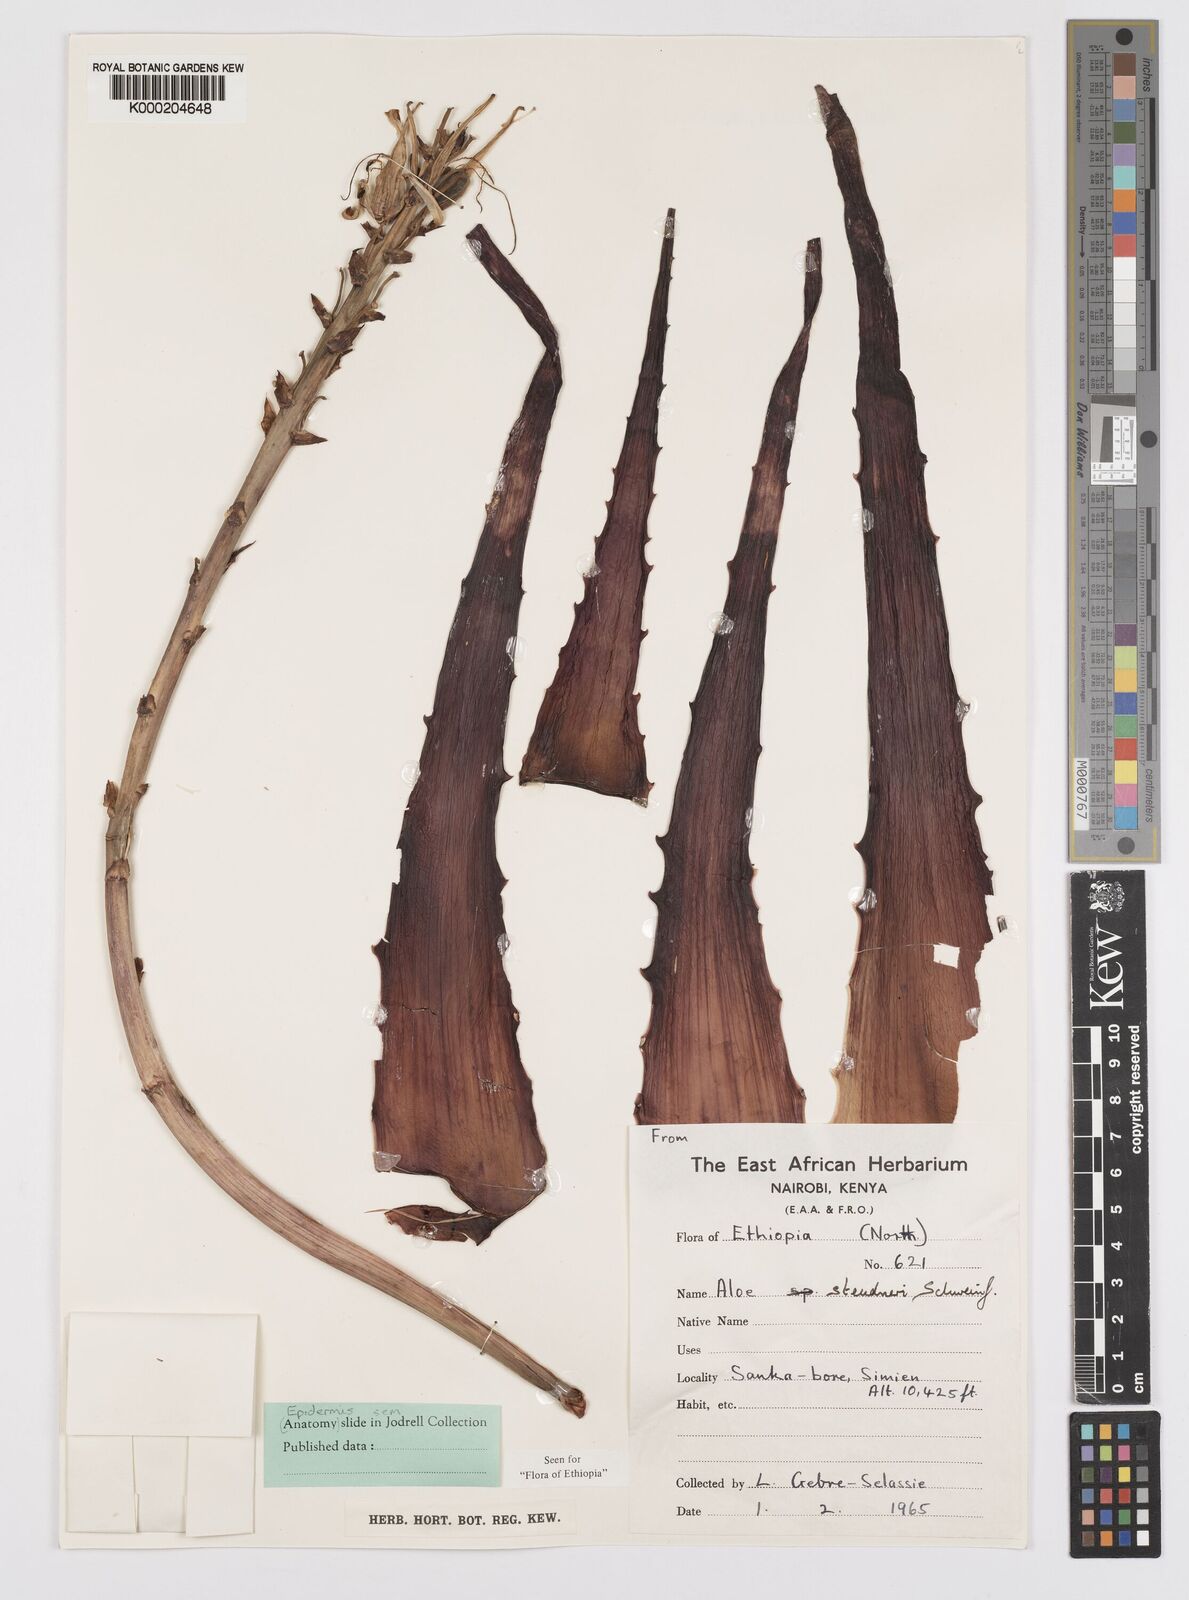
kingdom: Plantae
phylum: Tracheophyta
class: Liliopsida
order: Asparagales
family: Asphodelaceae
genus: Aloe
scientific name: Aloe steudneri
